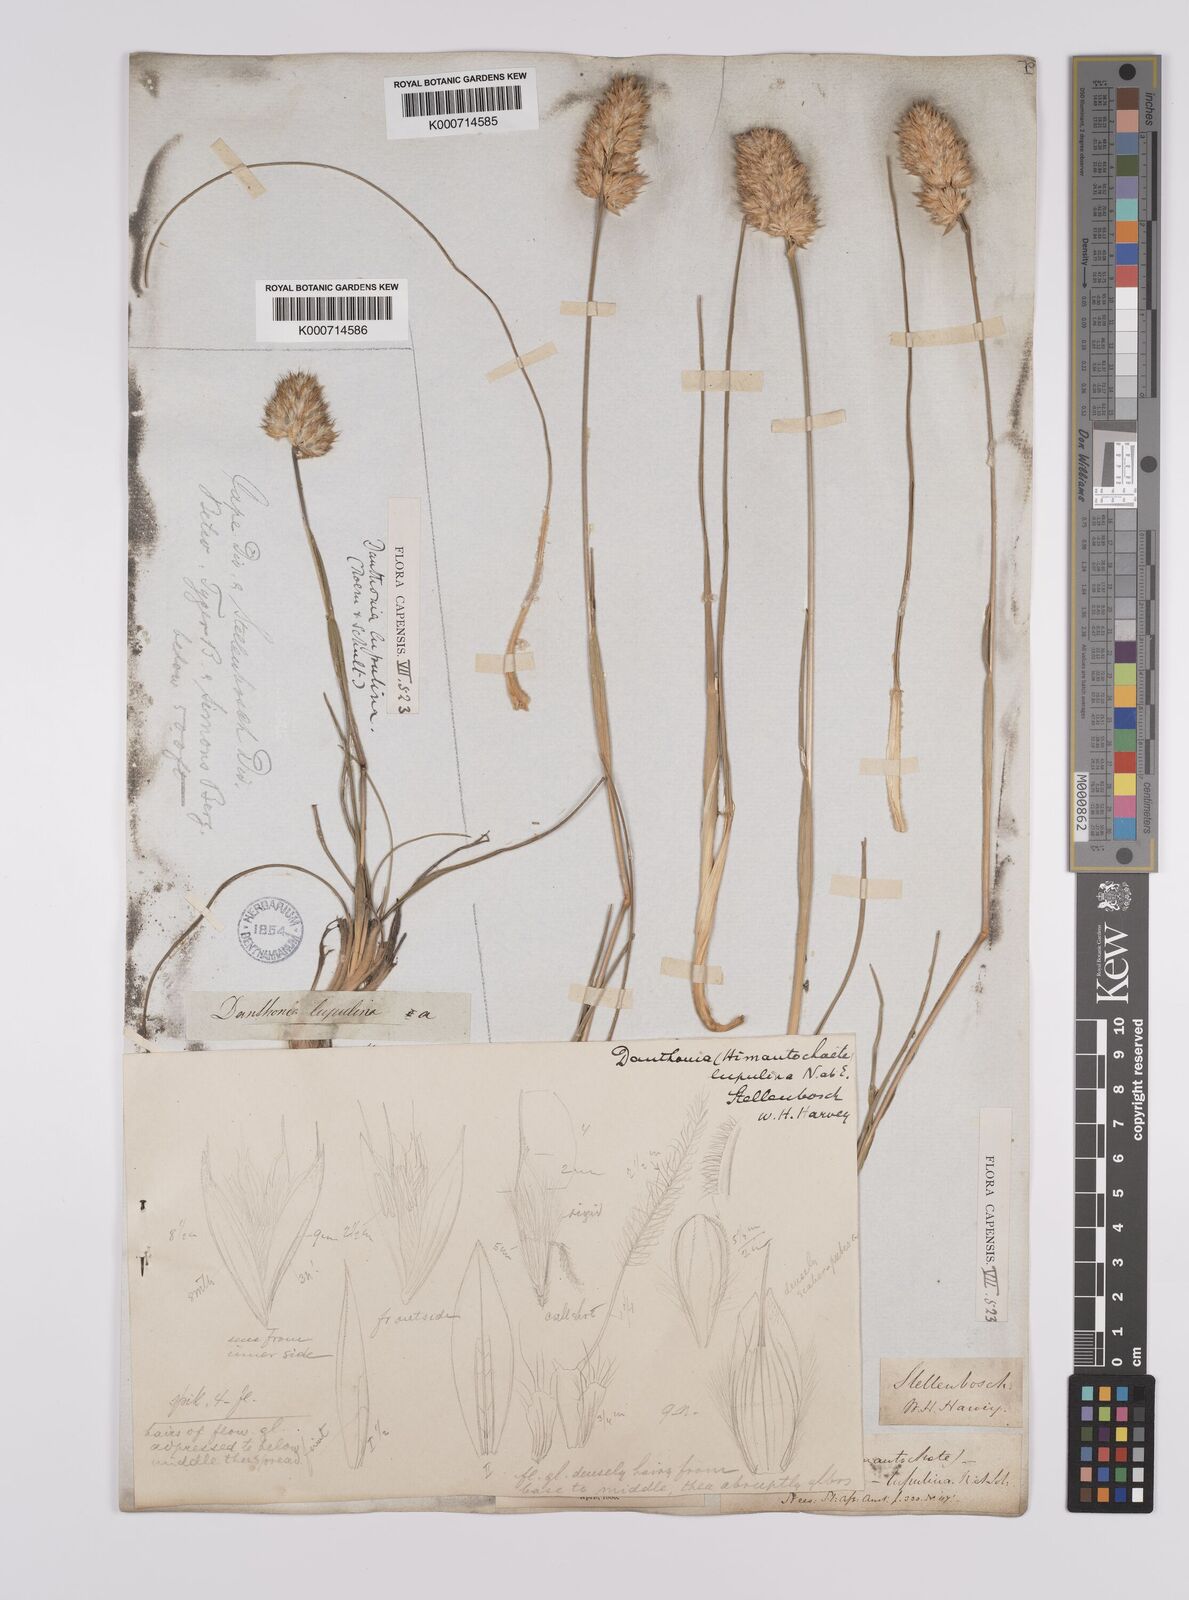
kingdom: Plantae
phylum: Tracheophyta
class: Liliopsida
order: Poales
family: Poaceae
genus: Rytidosperma
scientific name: Rytidosperma
